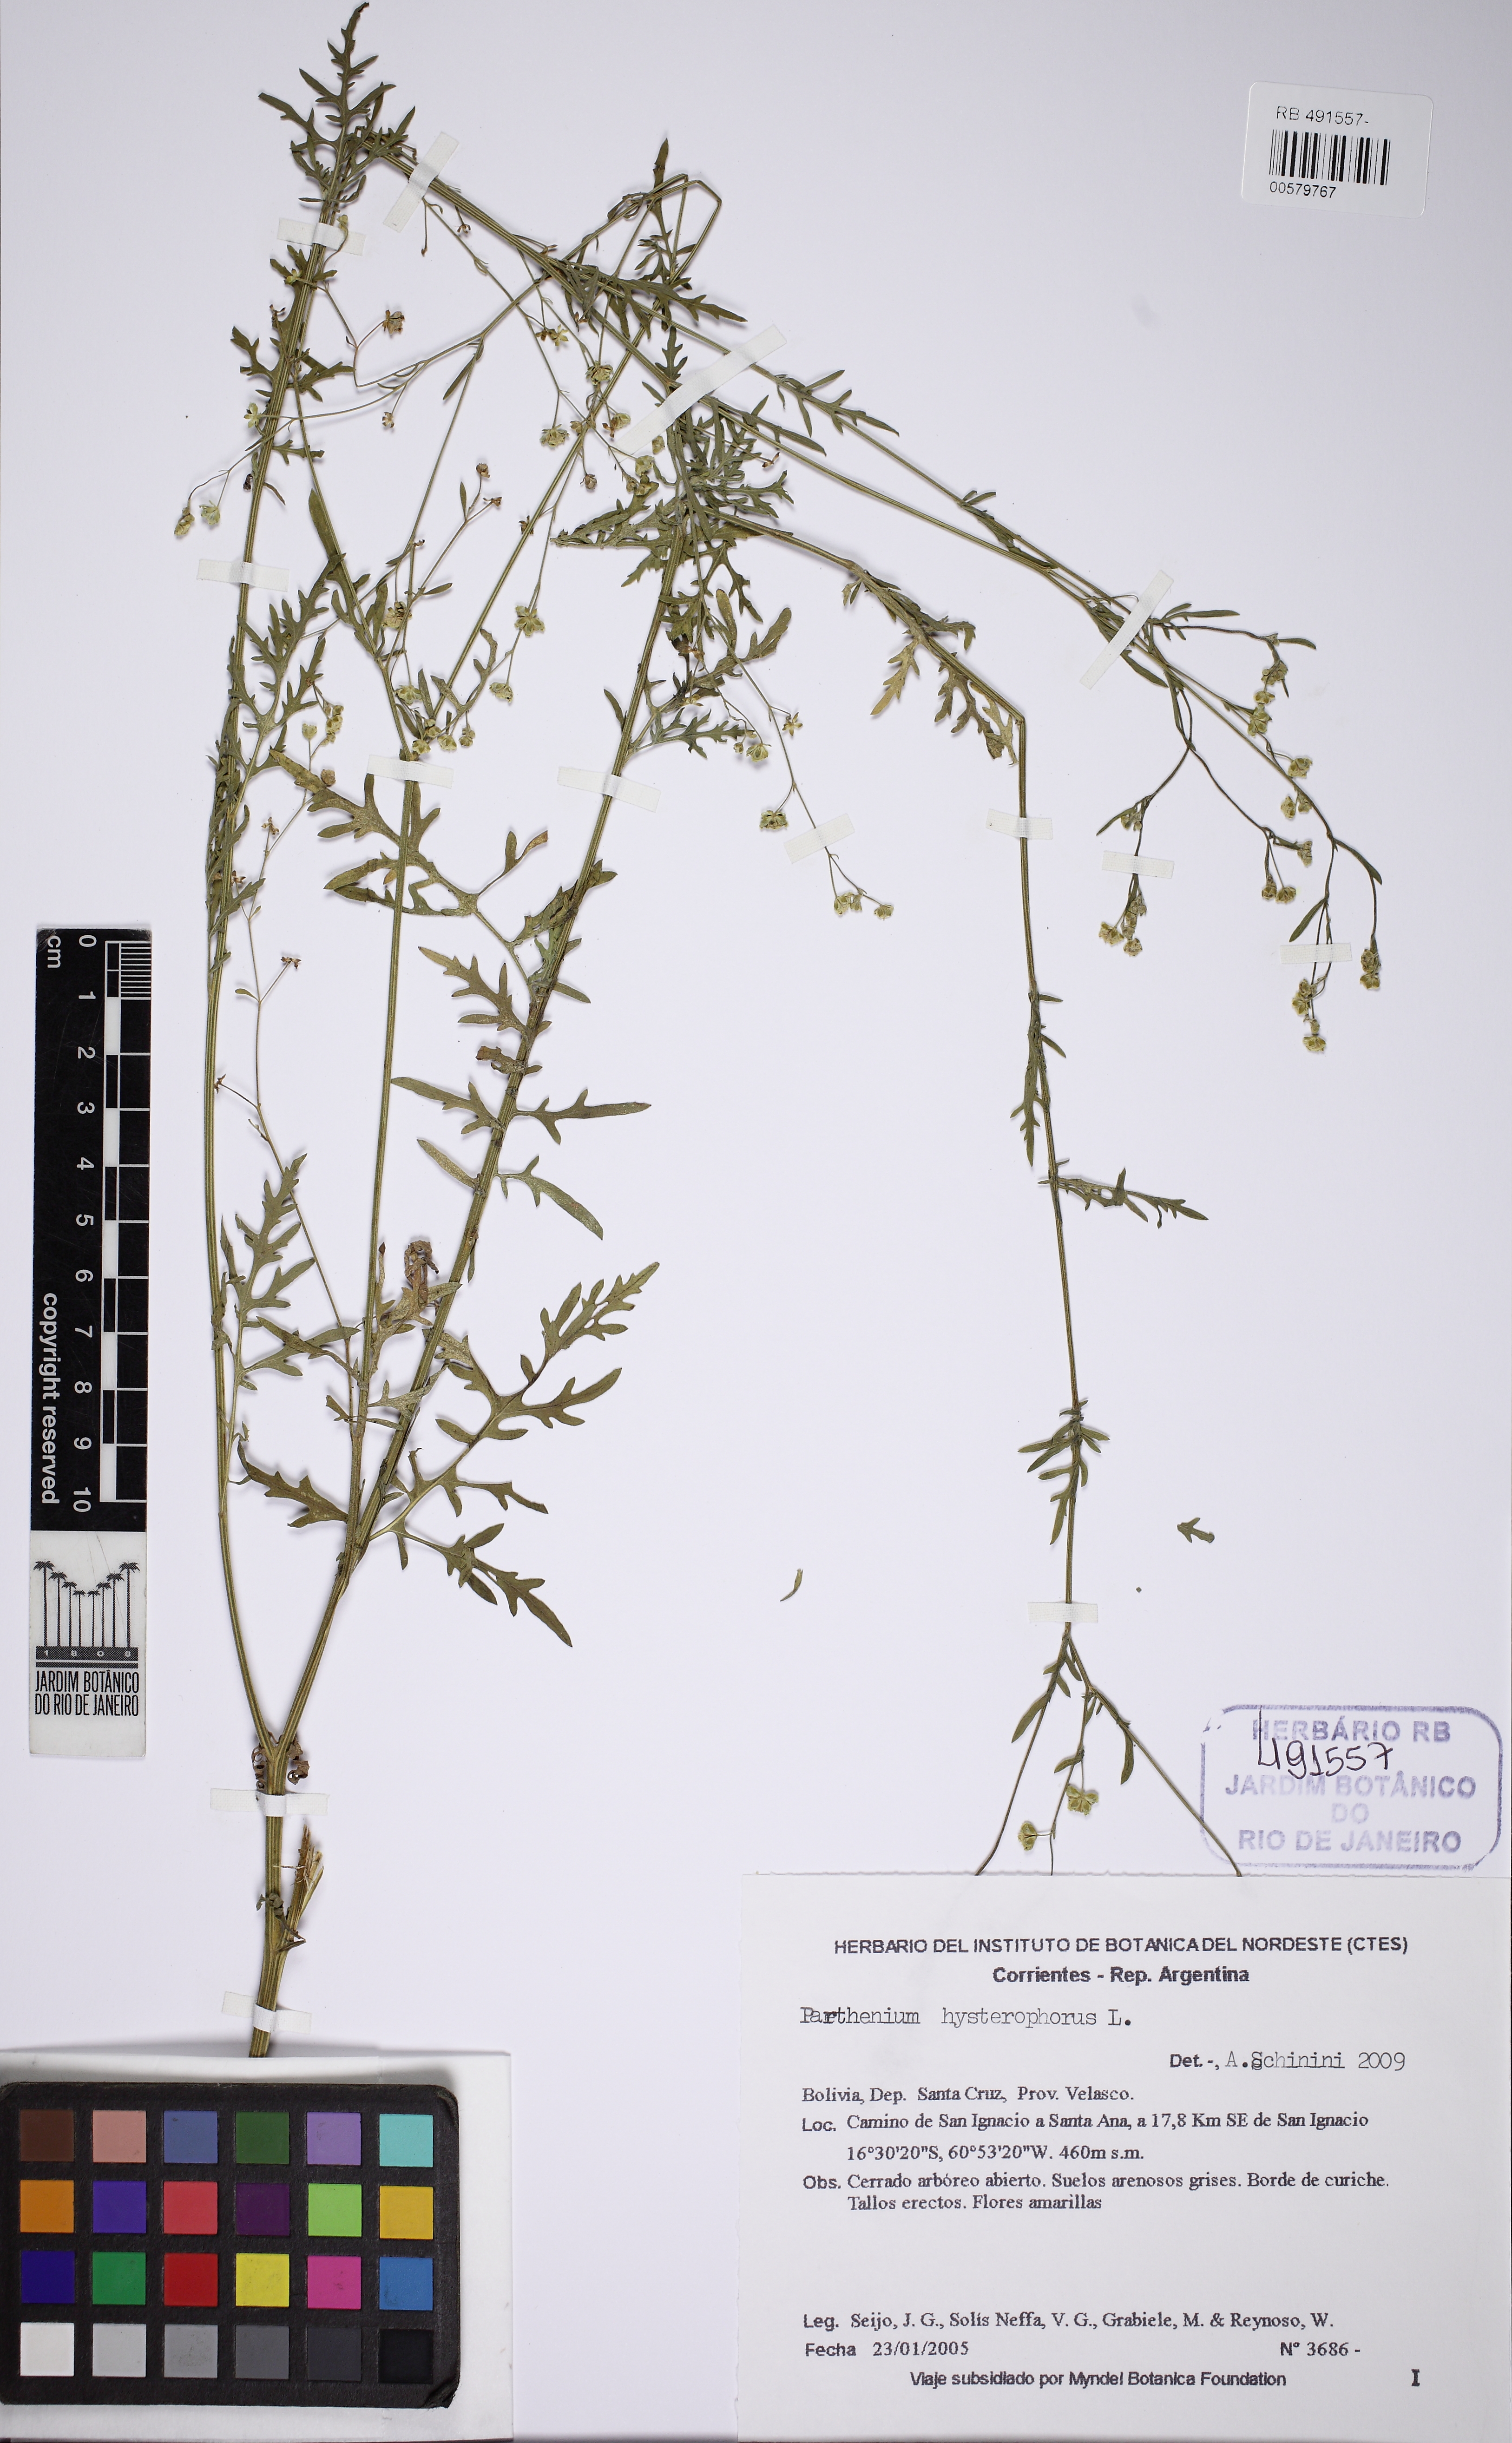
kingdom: Plantae
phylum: Tracheophyta
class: Magnoliopsida
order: Asterales
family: Asteraceae
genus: Parthenium
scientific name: Parthenium hysterophorus
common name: Santa maria feverfew
